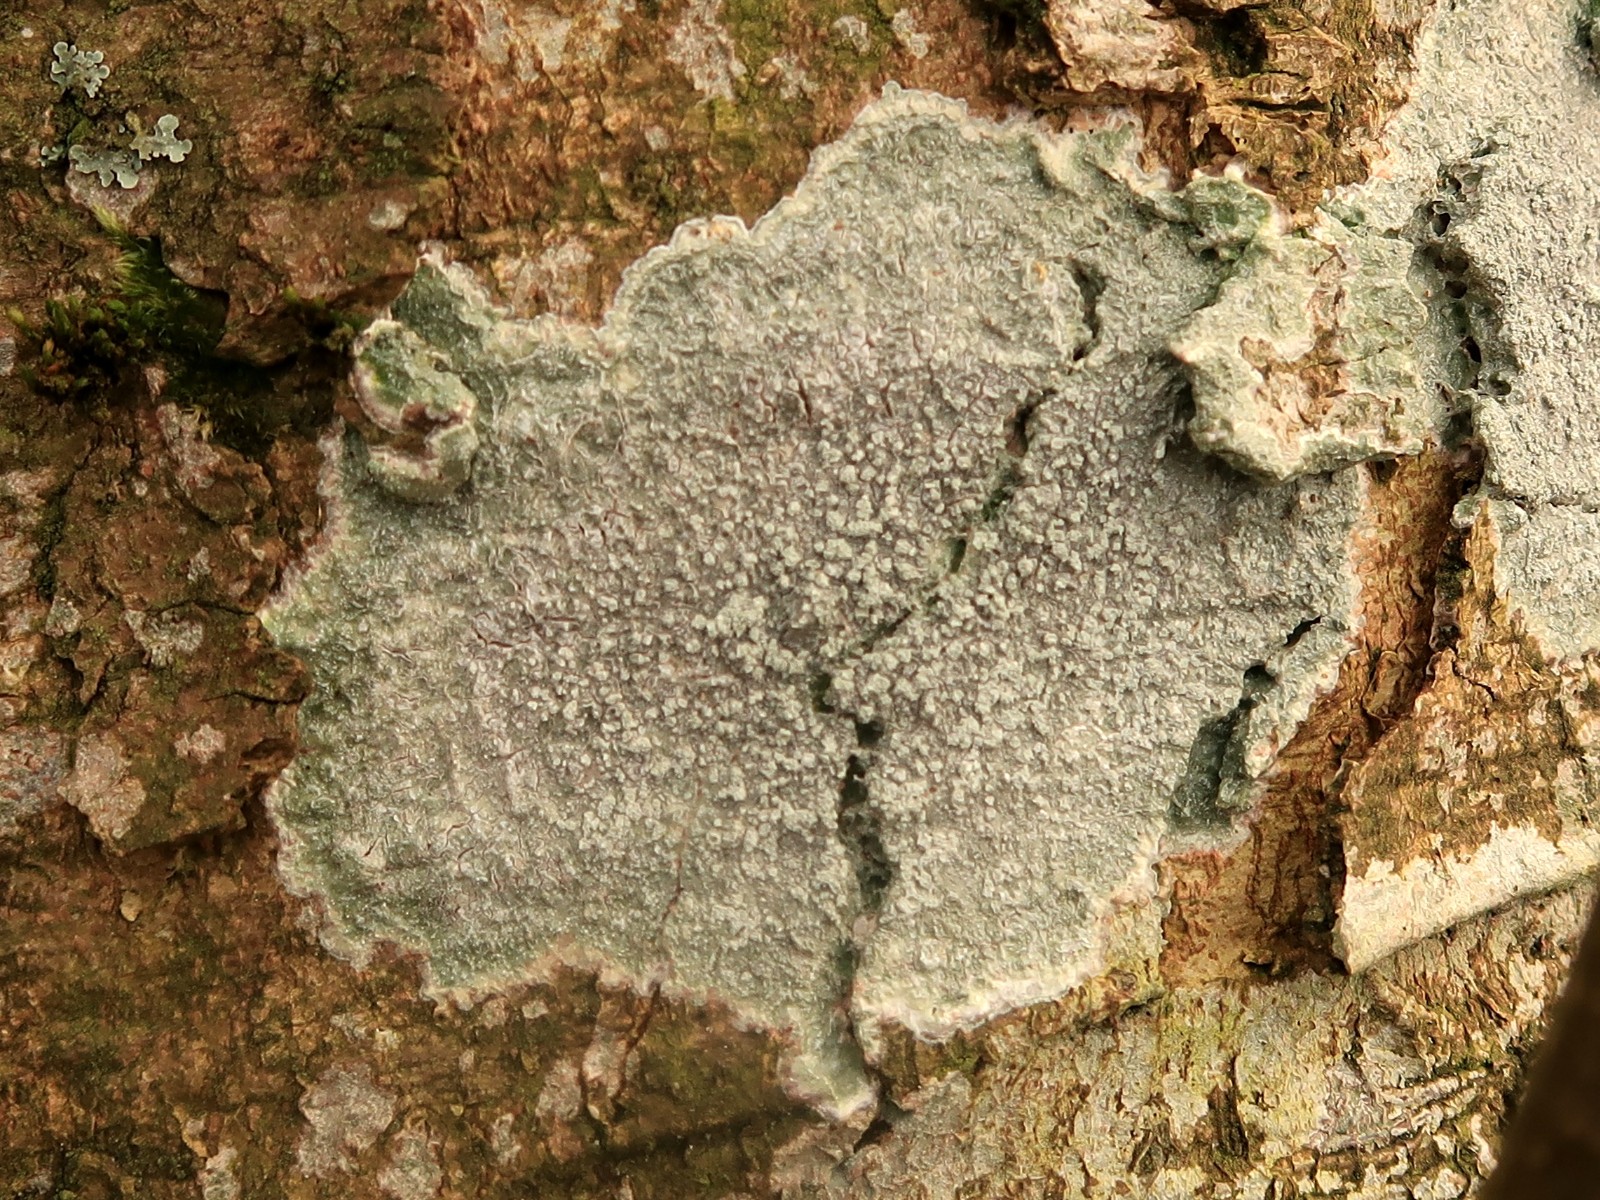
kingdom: Fungi
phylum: Ascomycota
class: Lecanoromycetes
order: Pertusariales
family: Pertusariaceae
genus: Lepra
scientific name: Lepra albescens
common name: hvidmelet prikvortelav
